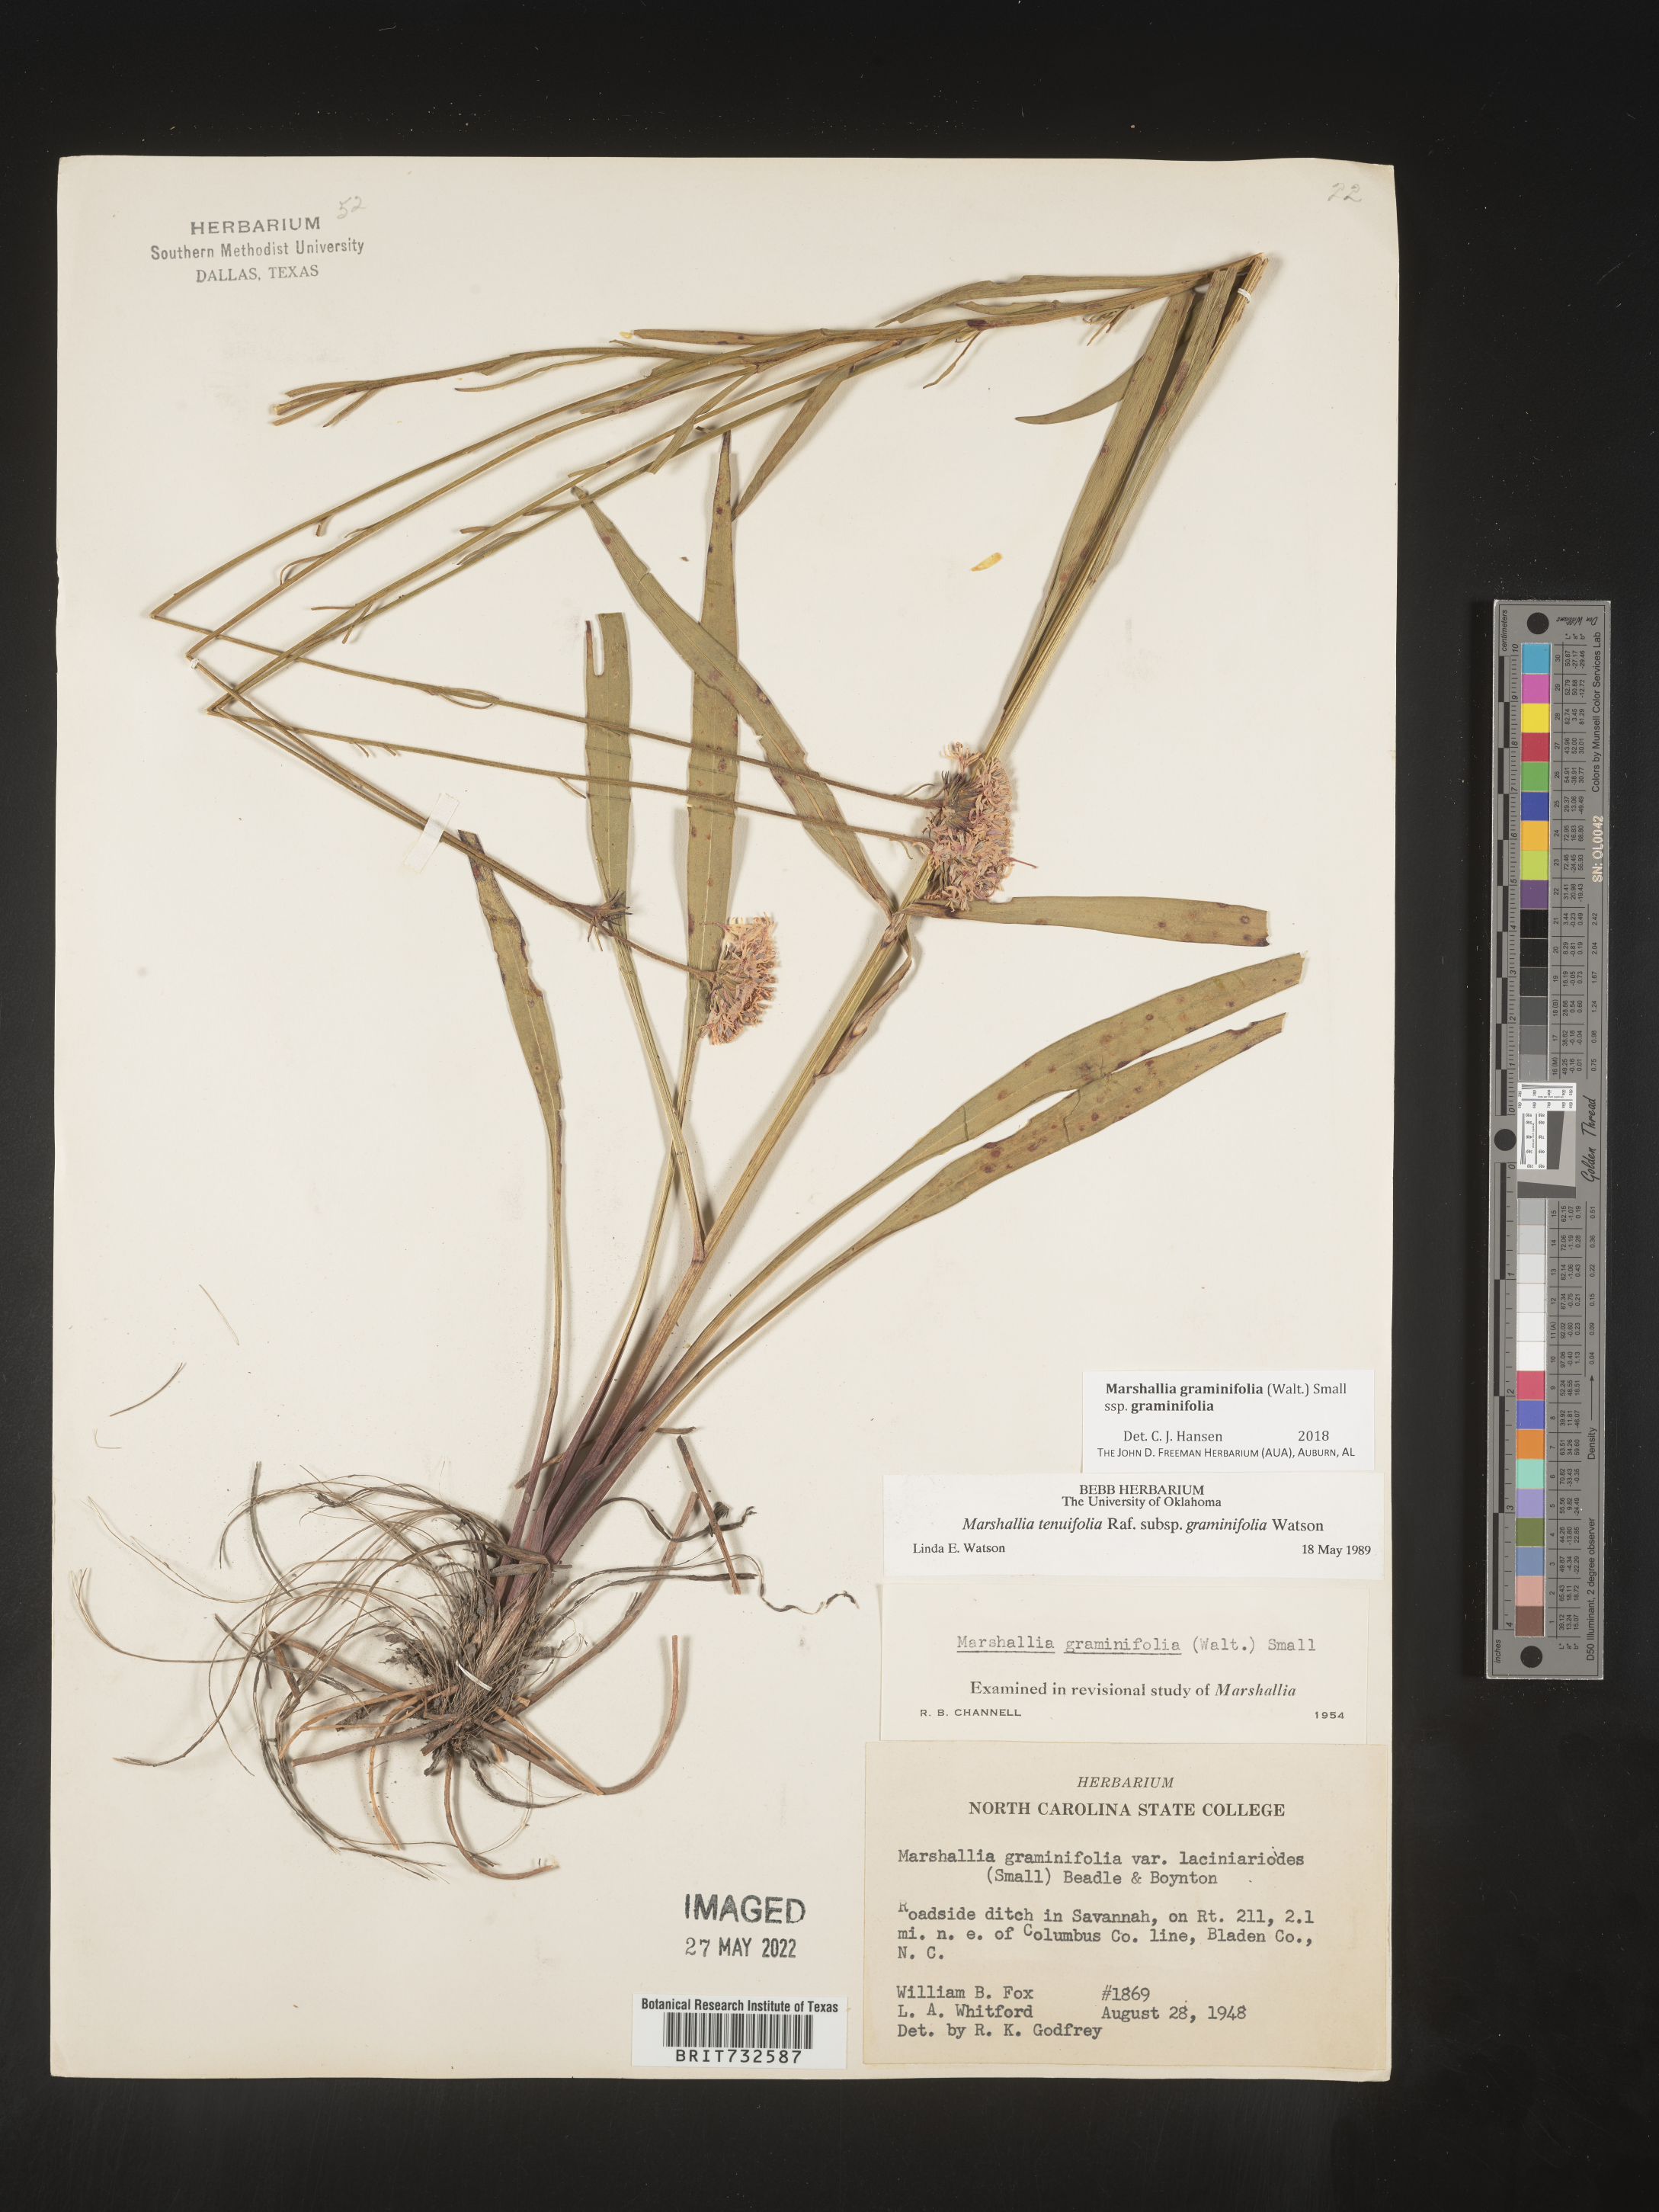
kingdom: Plantae
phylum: Tracheophyta
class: Magnoliopsida
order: Asterales
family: Asteraceae
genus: Marshallia
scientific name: Marshallia graminifolia
